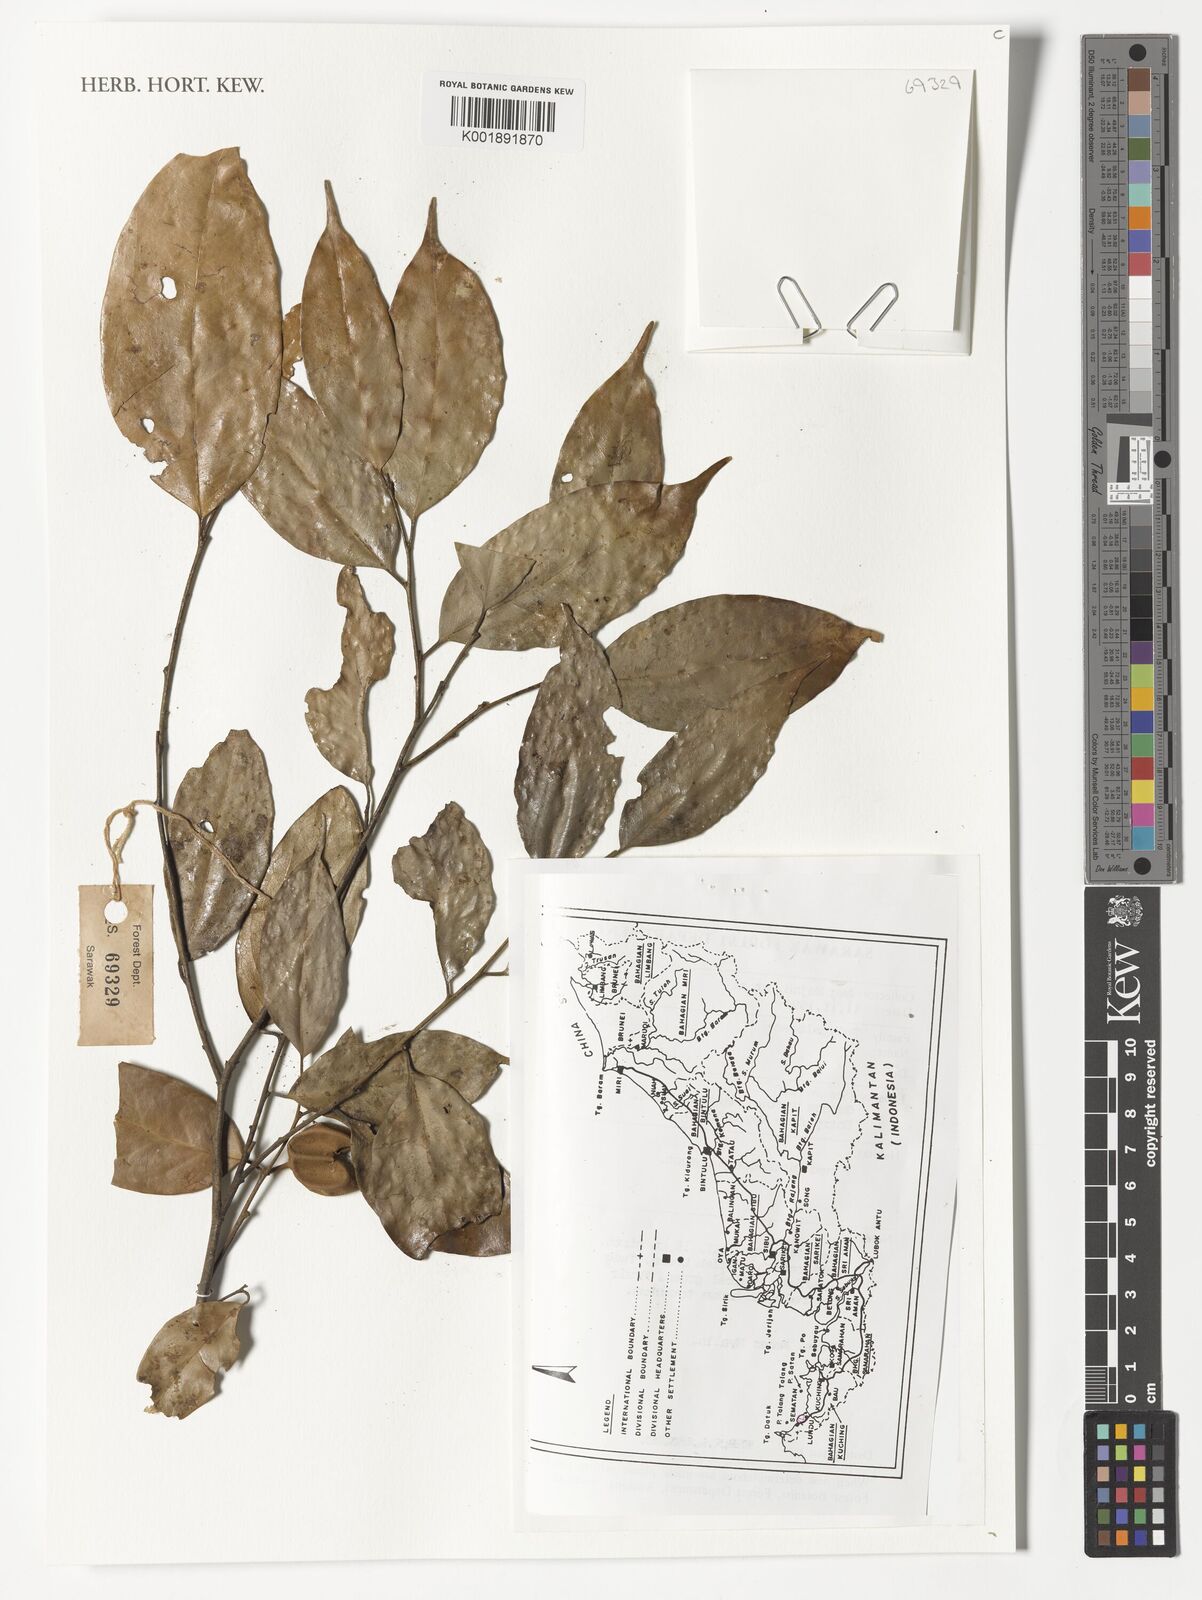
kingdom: Plantae
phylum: Tracheophyta
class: Magnoliopsida
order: Malpighiales
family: Putranjivaceae
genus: Drypetes
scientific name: Drypetes
